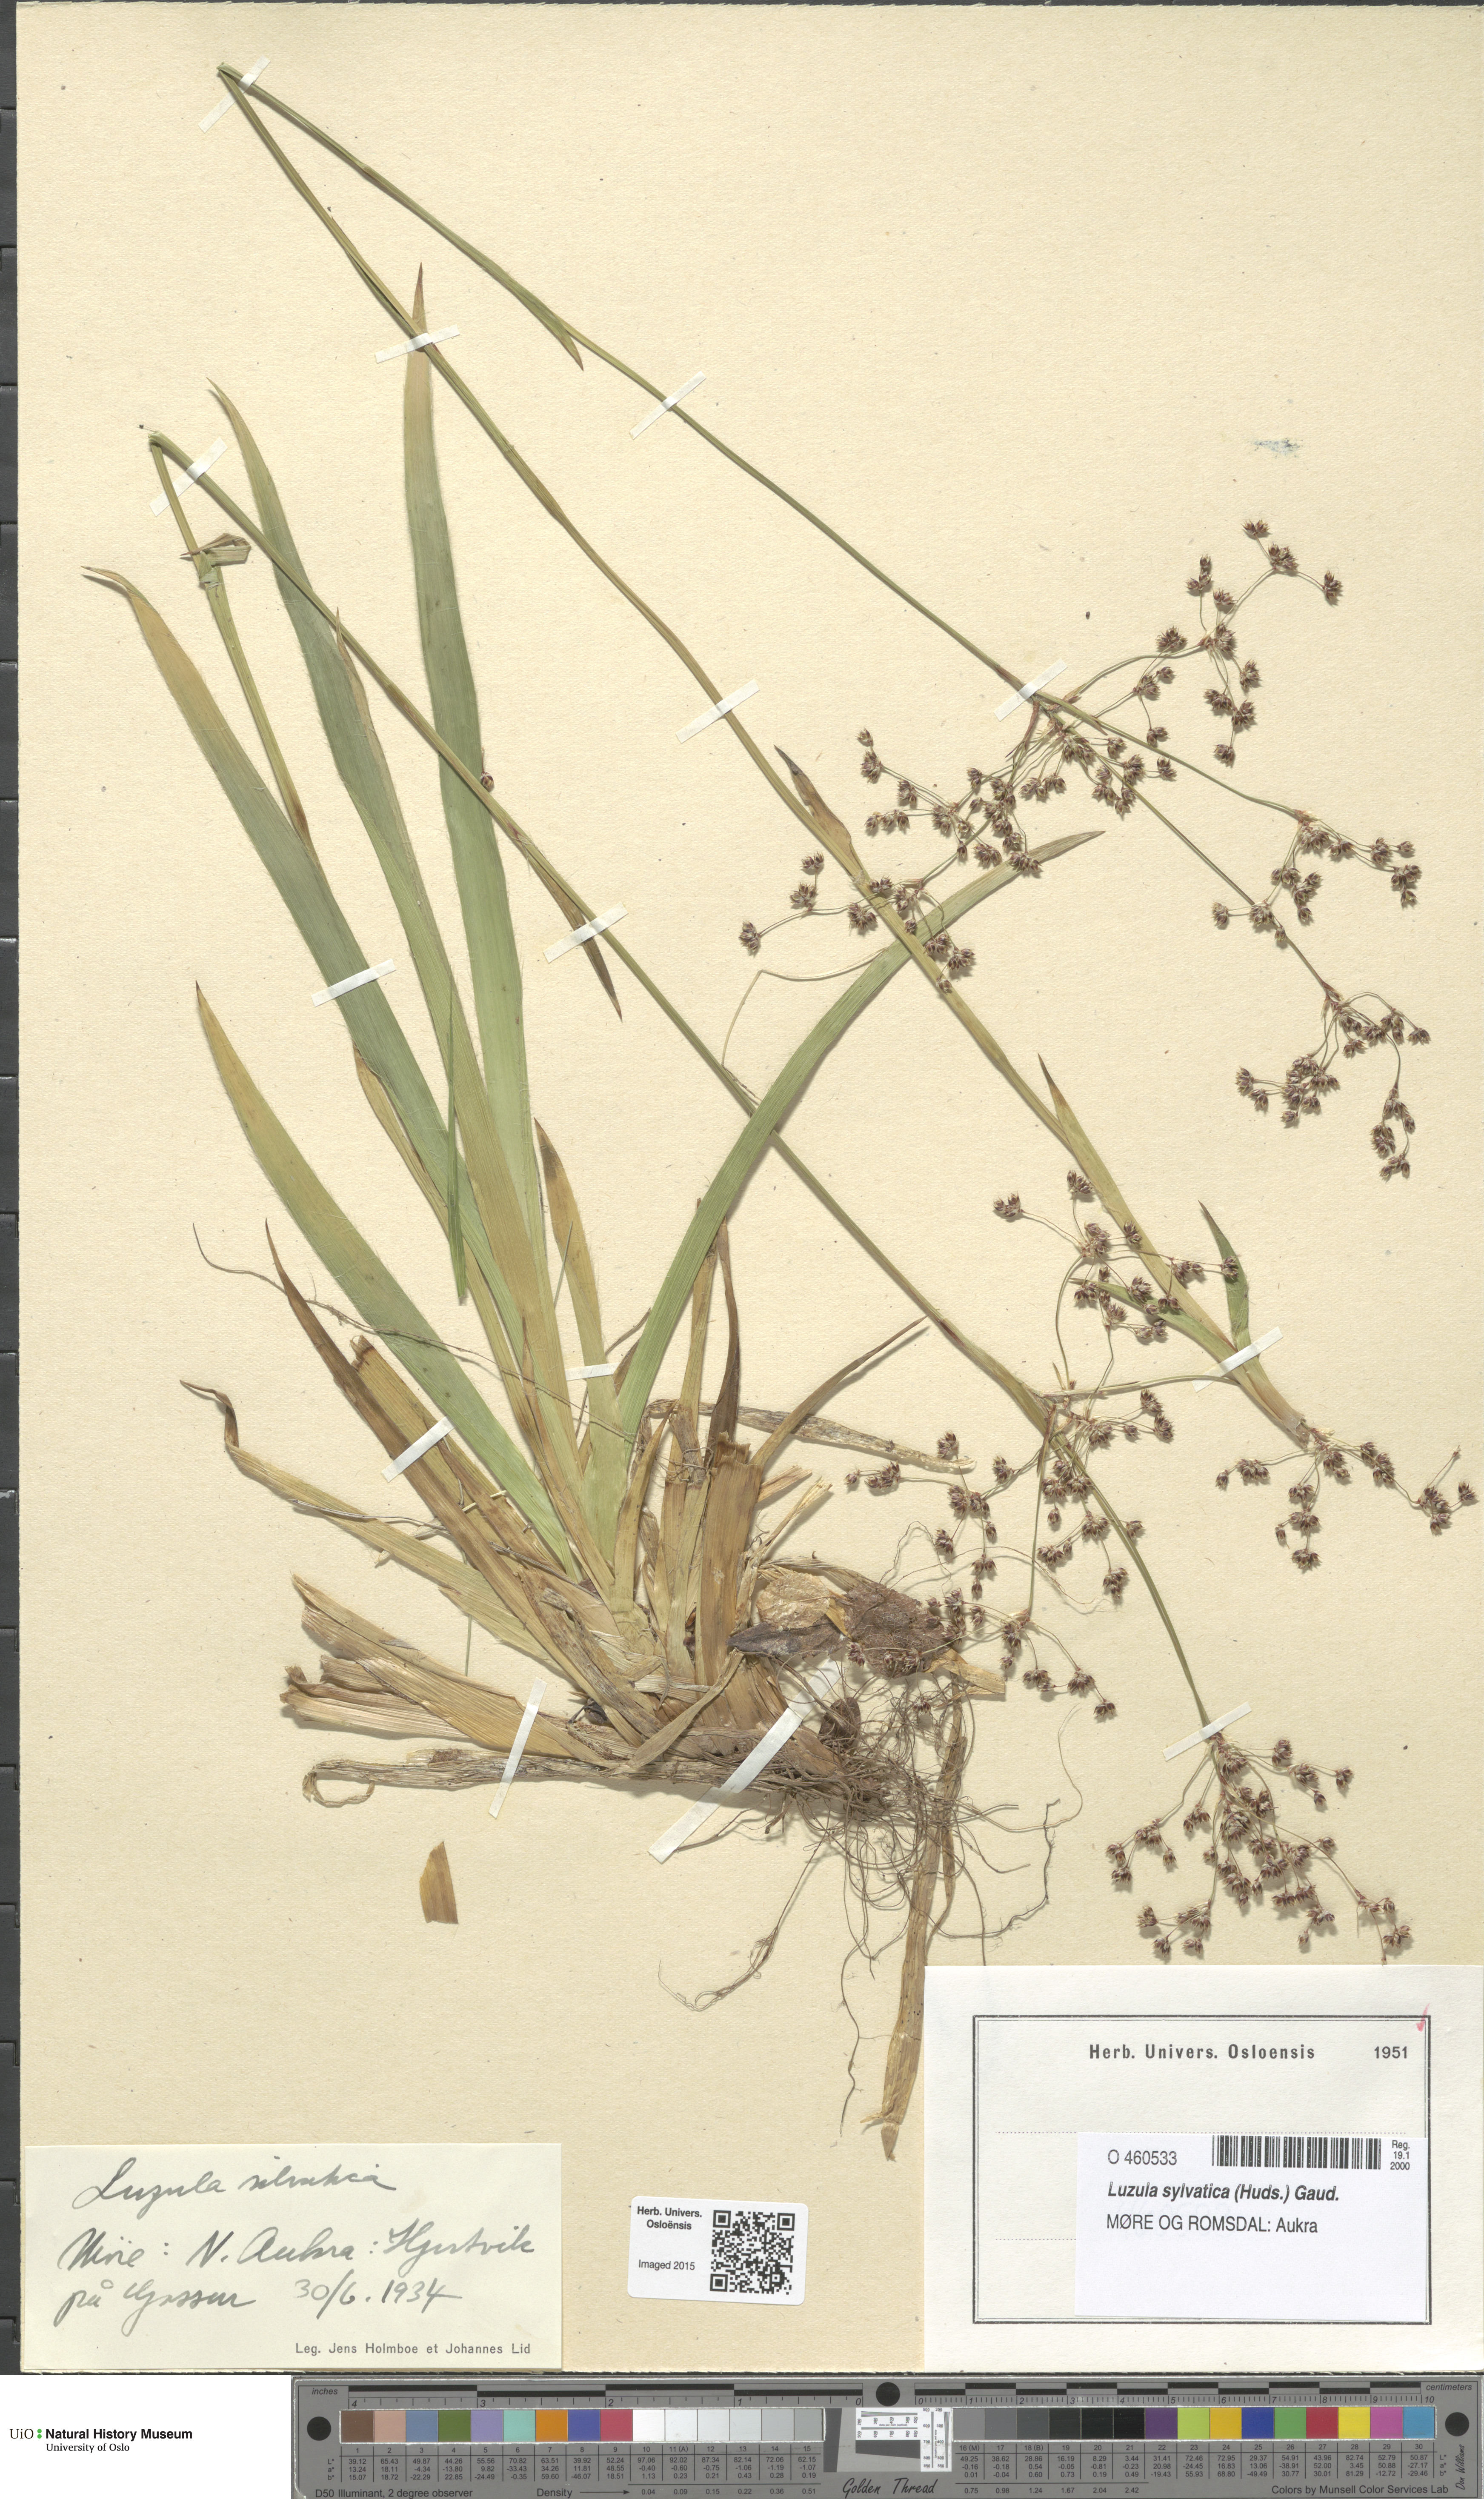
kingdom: Plantae
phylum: Tracheophyta
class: Liliopsida
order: Poales
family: Juncaceae
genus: Luzula
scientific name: Luzula sylvatica
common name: Great wood-rush
